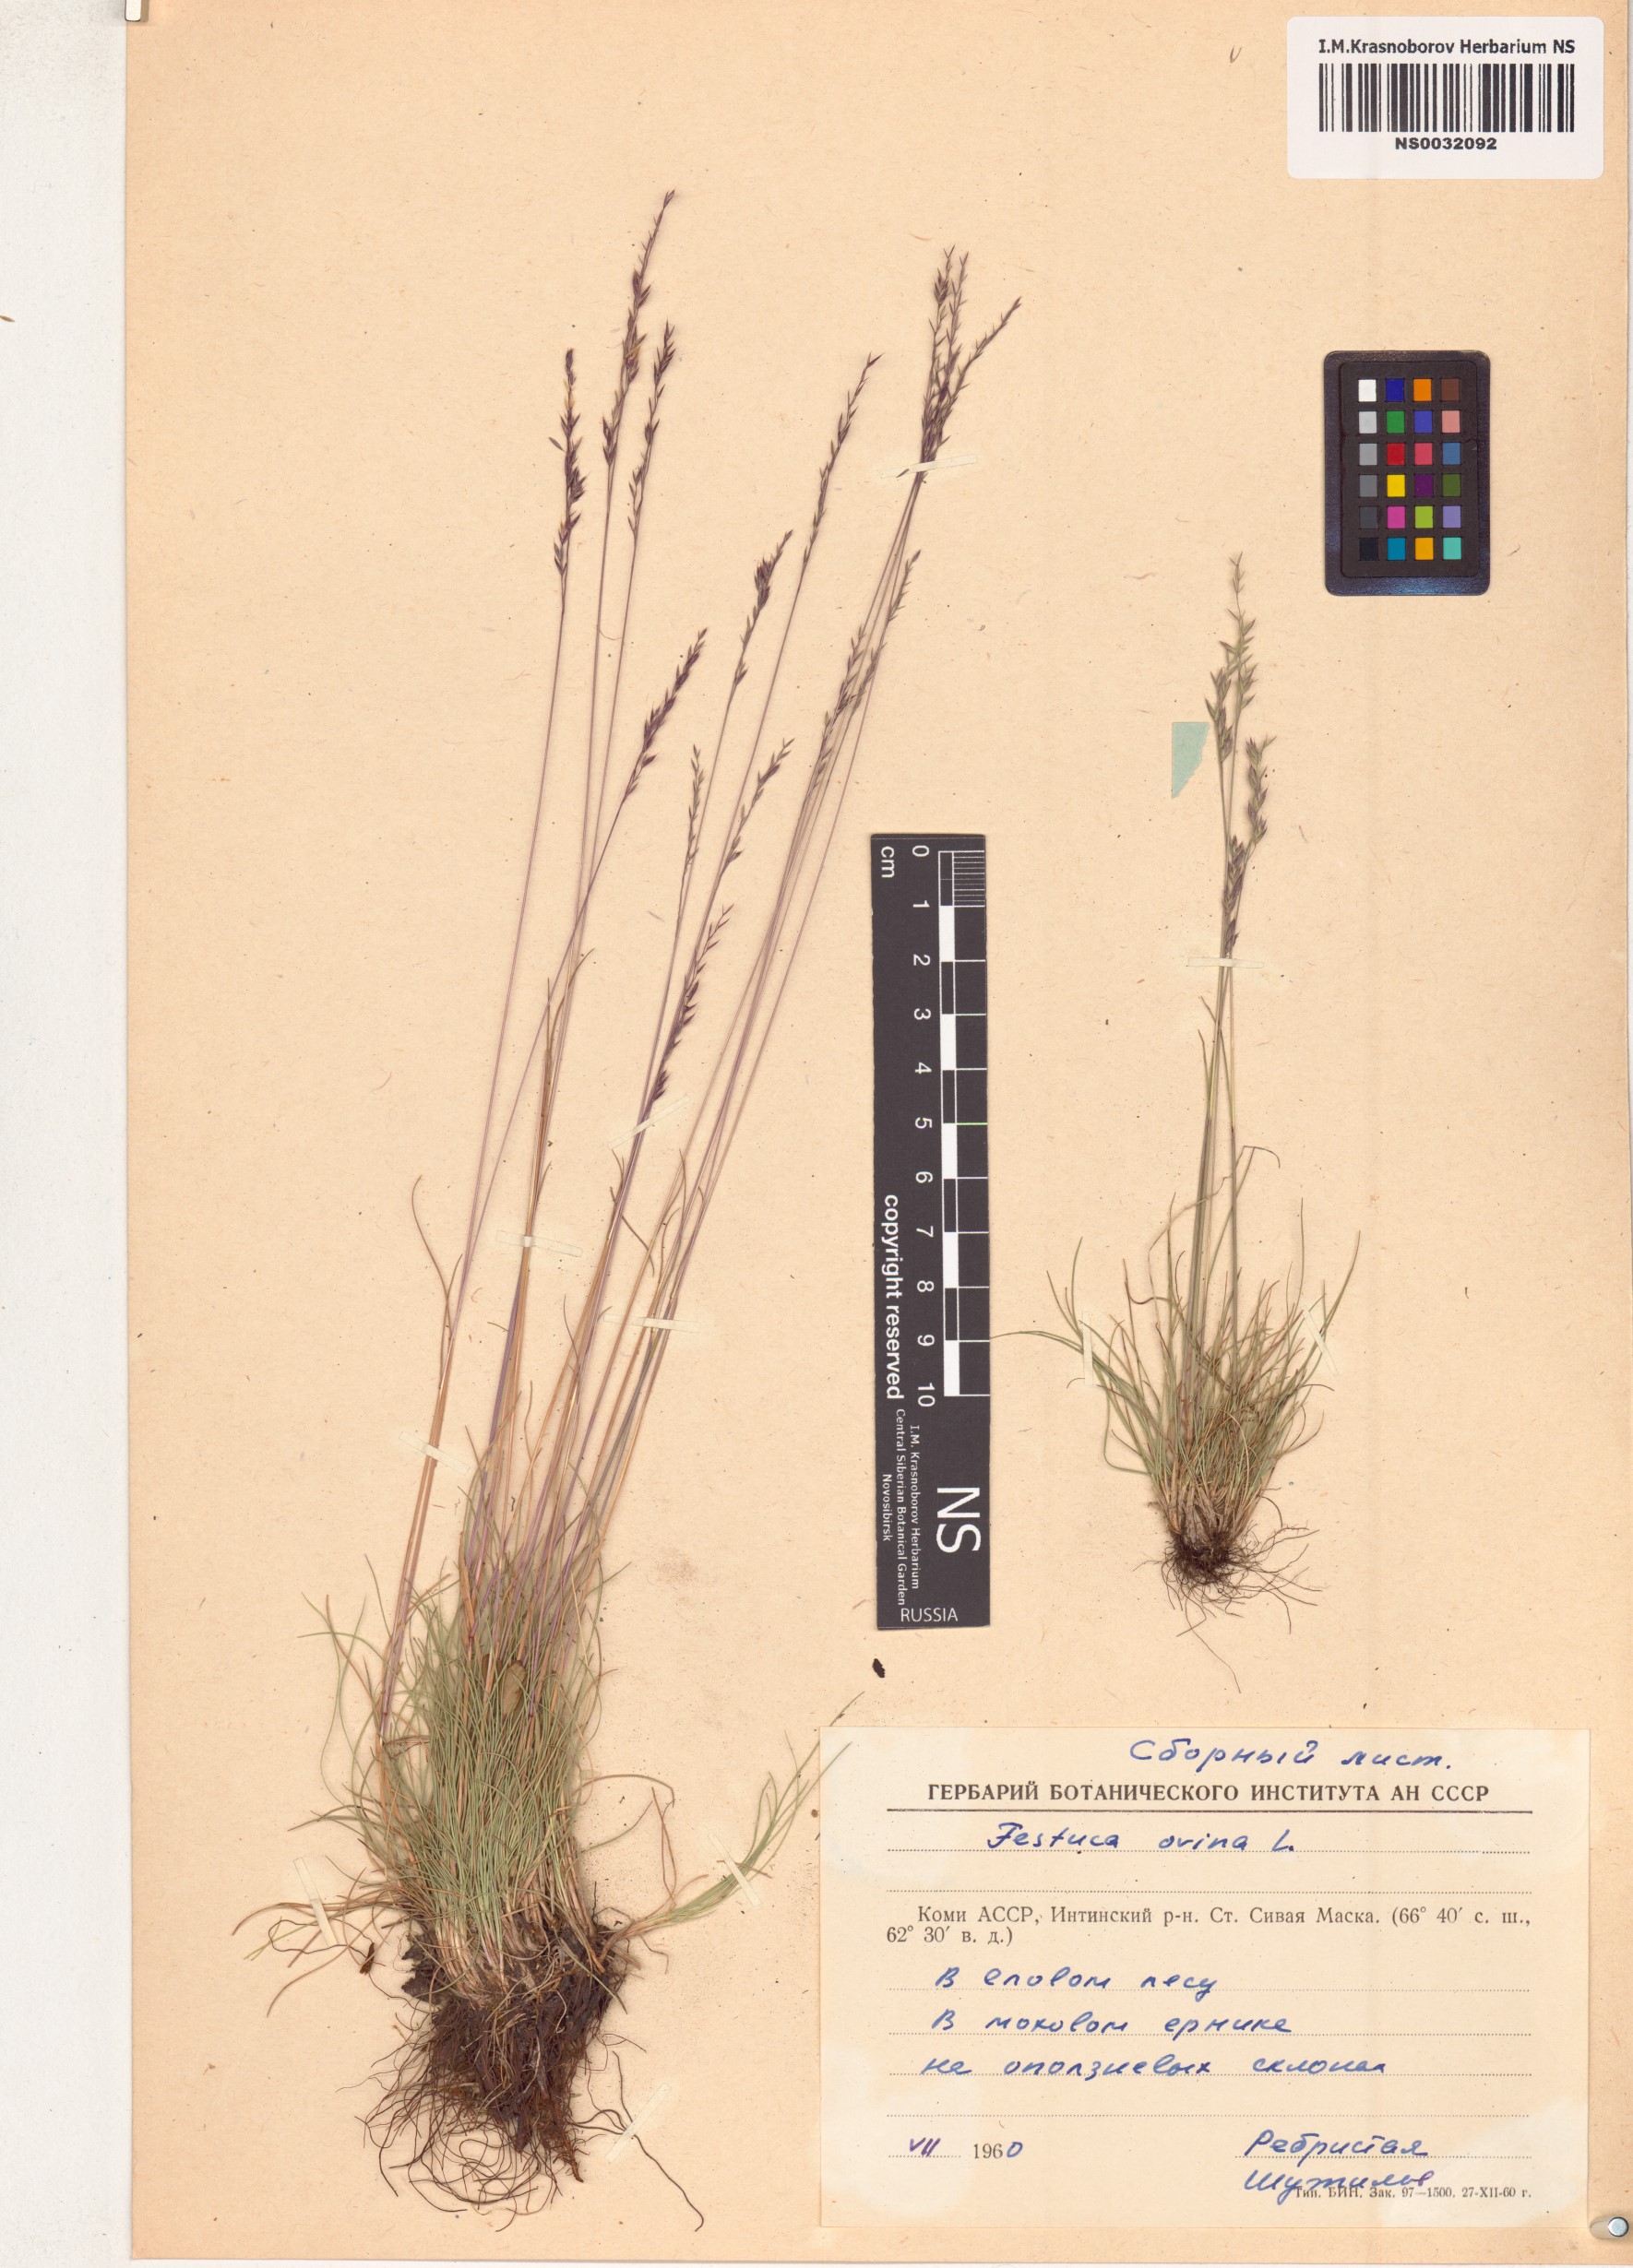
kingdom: Plantae
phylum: Tracheophyta
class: Liliopsida
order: Poales
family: Poaceae
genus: Festuca
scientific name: Festuca ovina
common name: Sheep fescue
